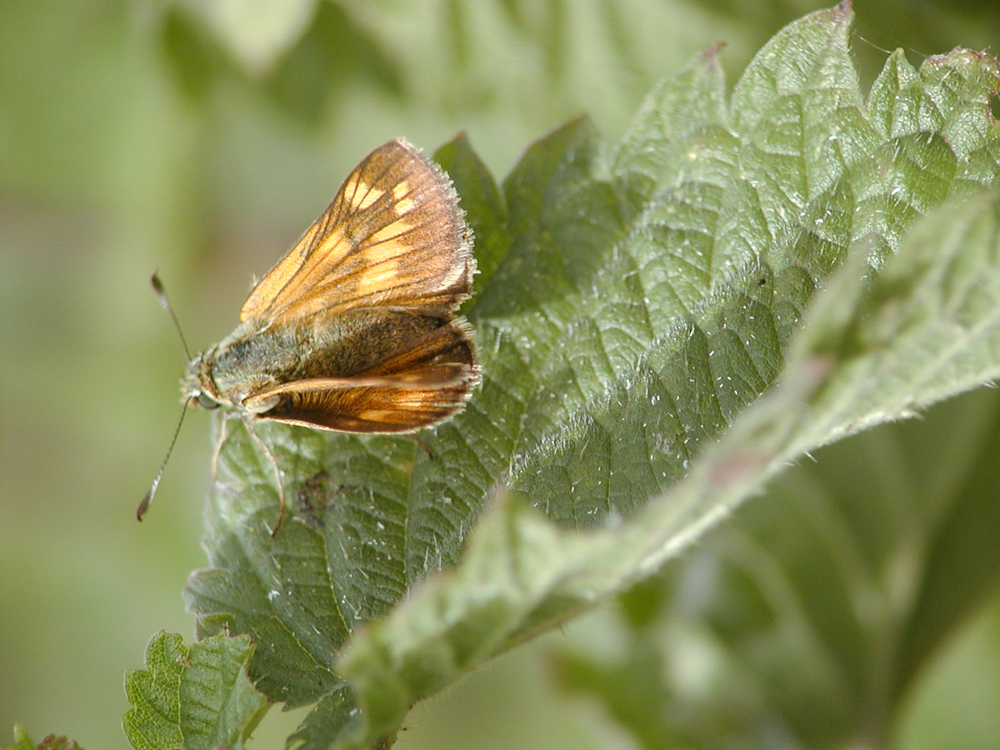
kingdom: Animalia
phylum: Arthropoda
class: Insecta
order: Lepidoptera
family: Hesperiidae
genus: Ochlodes
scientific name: Ochlodes venata
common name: Large skipper
